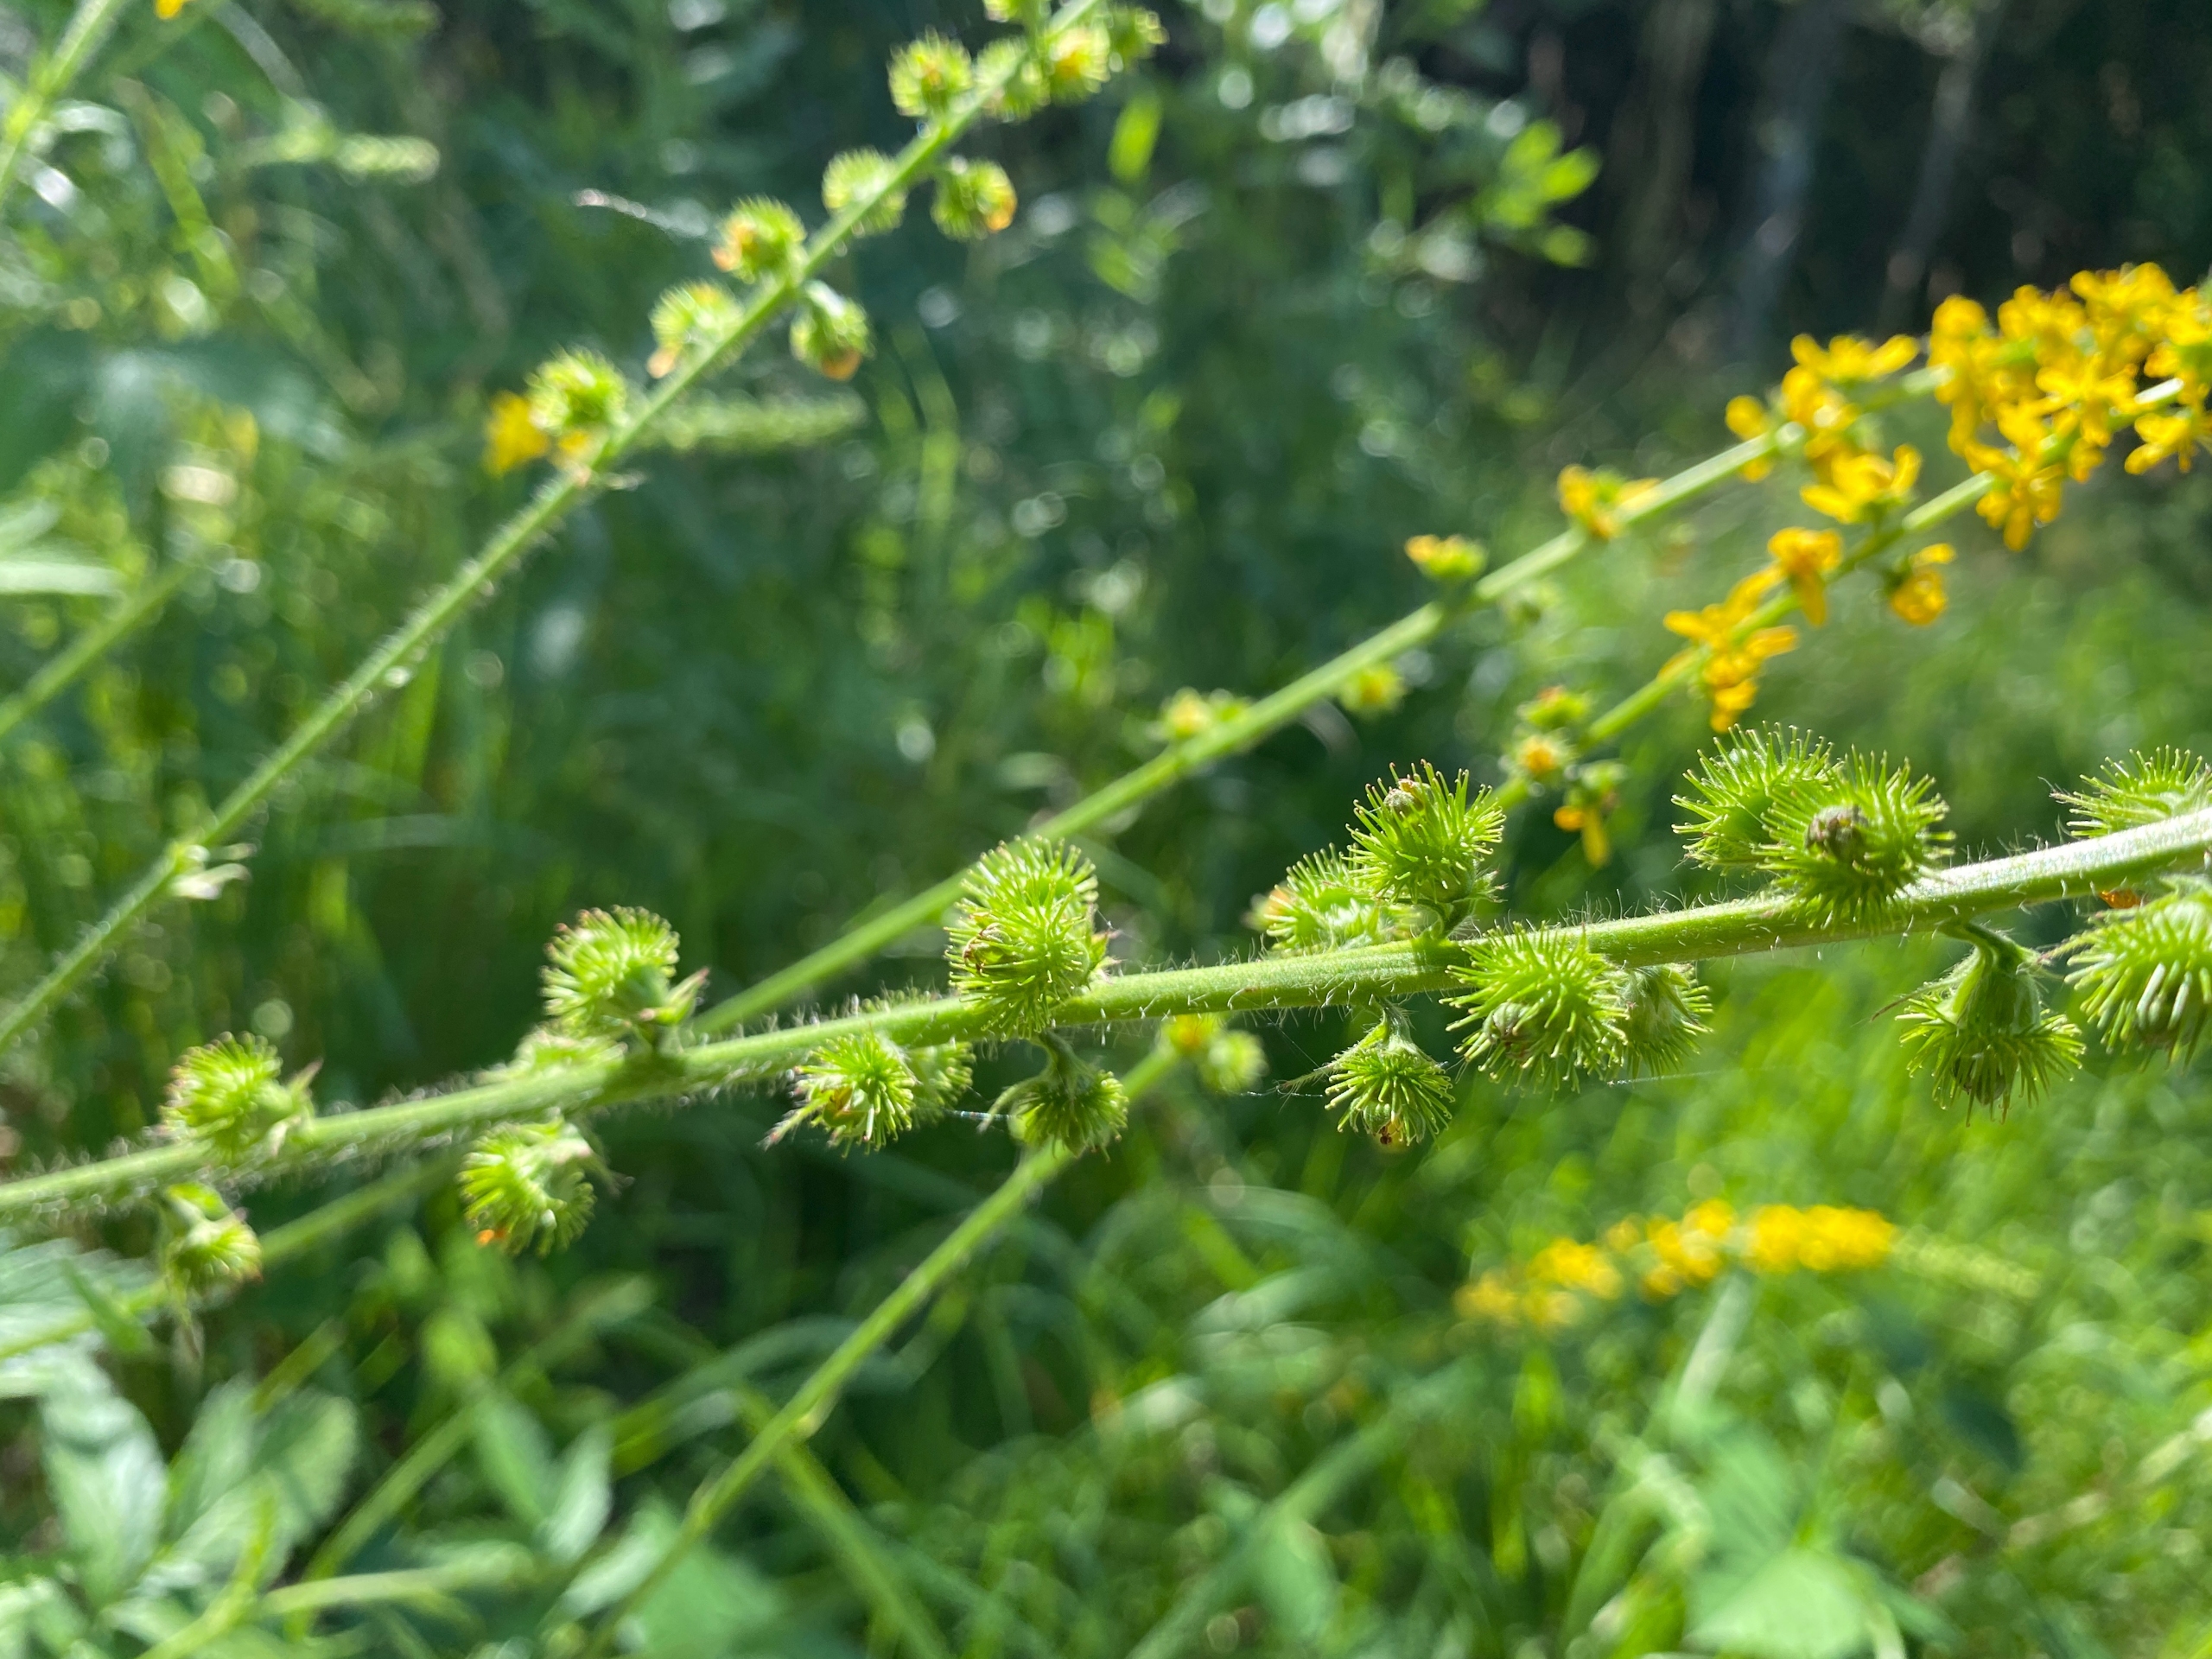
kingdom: Plantae
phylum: Tracheophyta
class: Magnoliopsida
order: Rosales
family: Rosaceae
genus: Agrimonia
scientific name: Agrimonia procera
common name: Vellugtende agermåne
